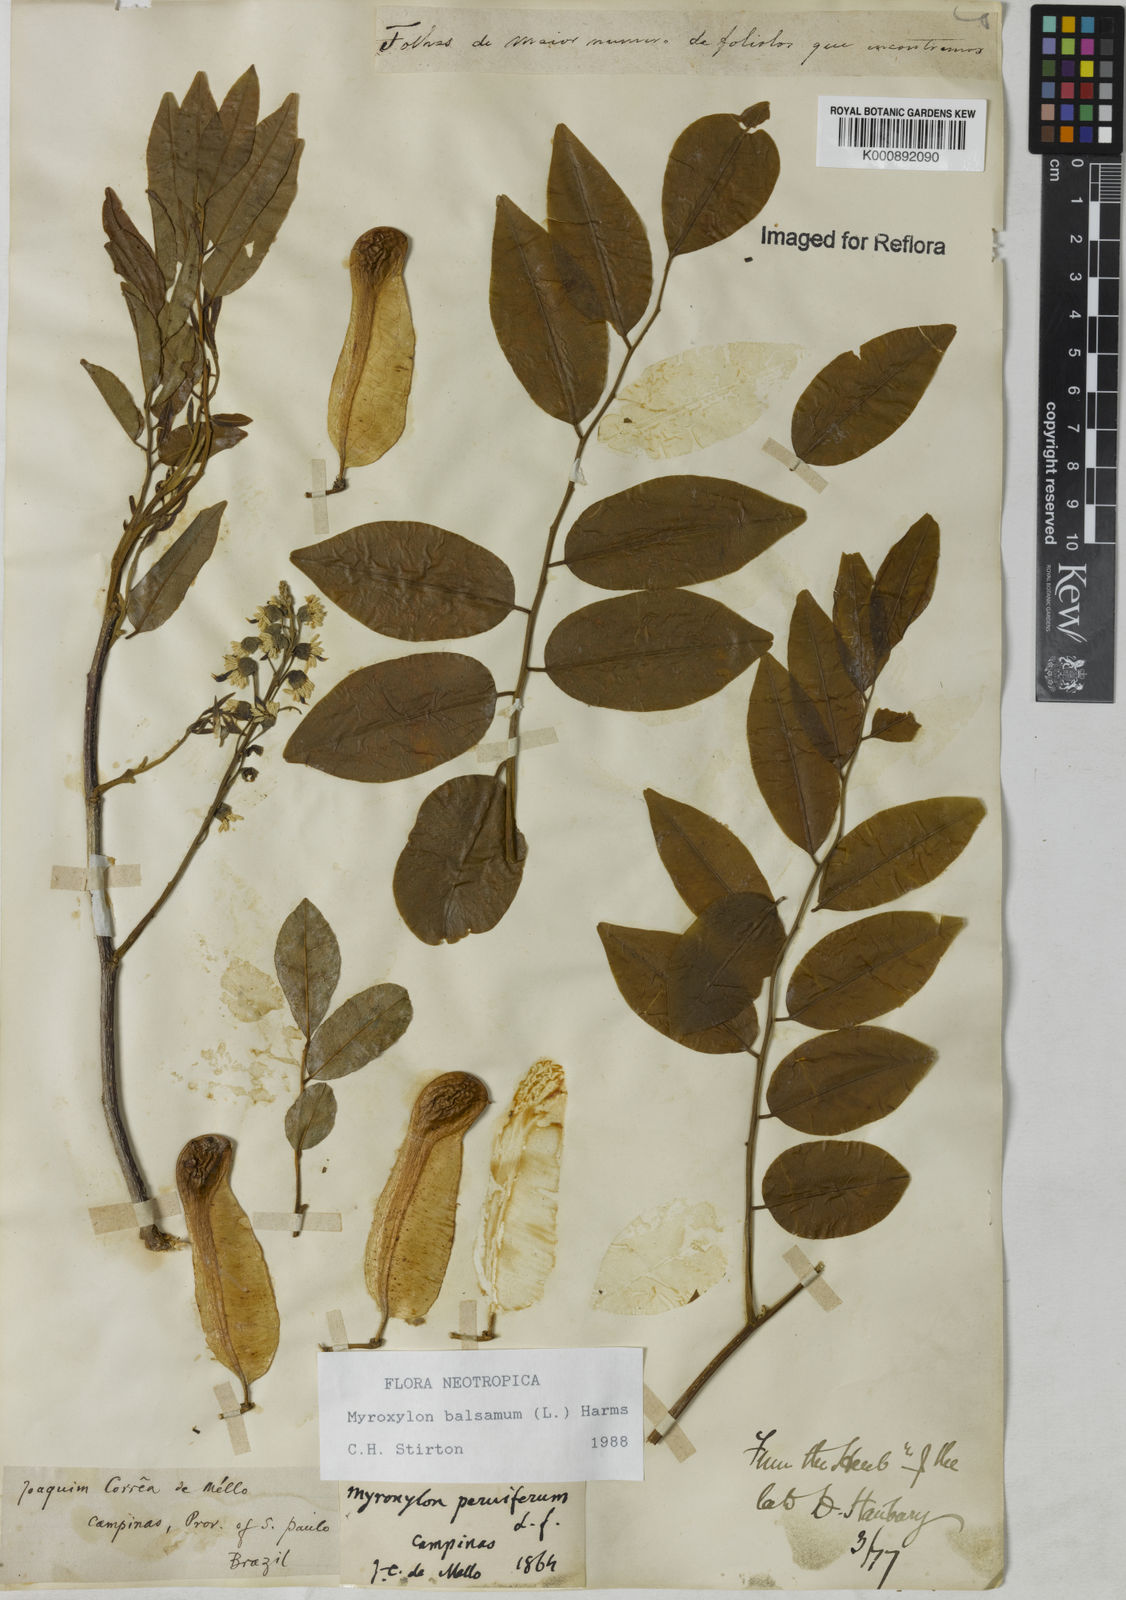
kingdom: Plantae
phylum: Tracheophyta
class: Magnoliopsida
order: Fabales
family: Fabaceae
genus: Myroxylon
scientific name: Myroxylon balsamum
